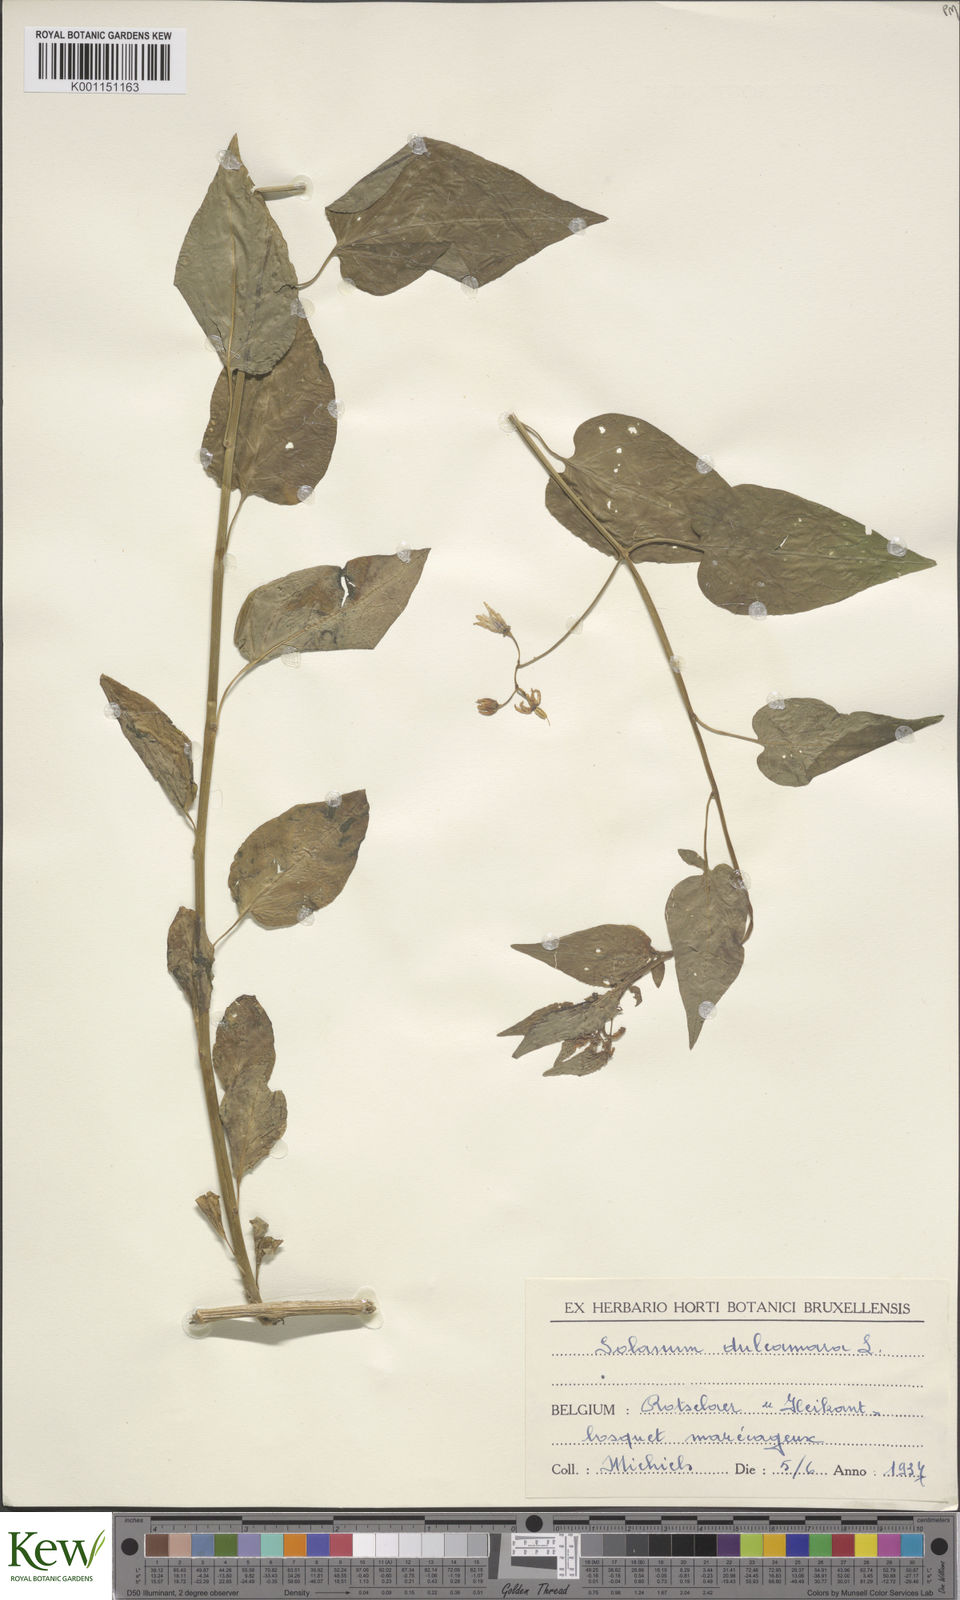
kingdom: Plantae
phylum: Tracheophyta
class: Magnoliopsida
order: Solanales
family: Solanaceae
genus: Solanum
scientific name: Solanum dulcamara
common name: Climbing nightshade
